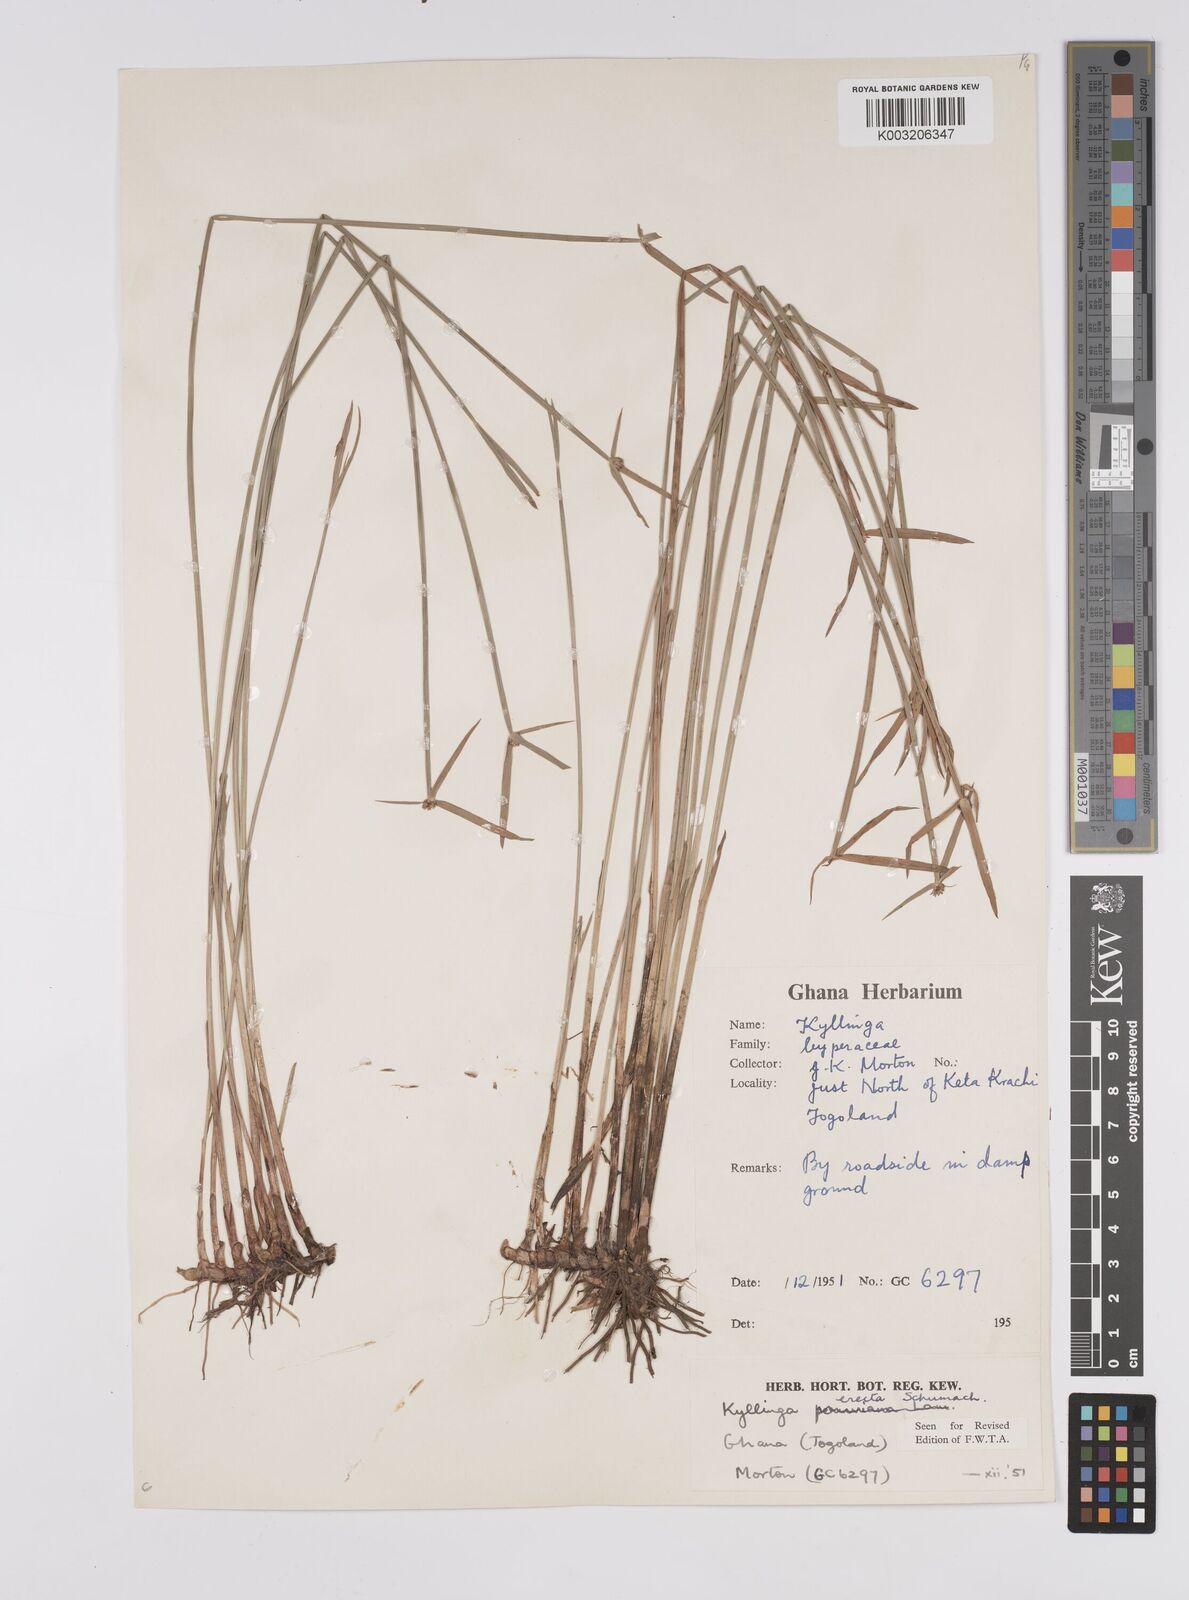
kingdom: Plantae
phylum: Tracheophyta
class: Liliopsida
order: Poales
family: Cyperaceae
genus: Cyperus
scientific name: Cyperus erectus
